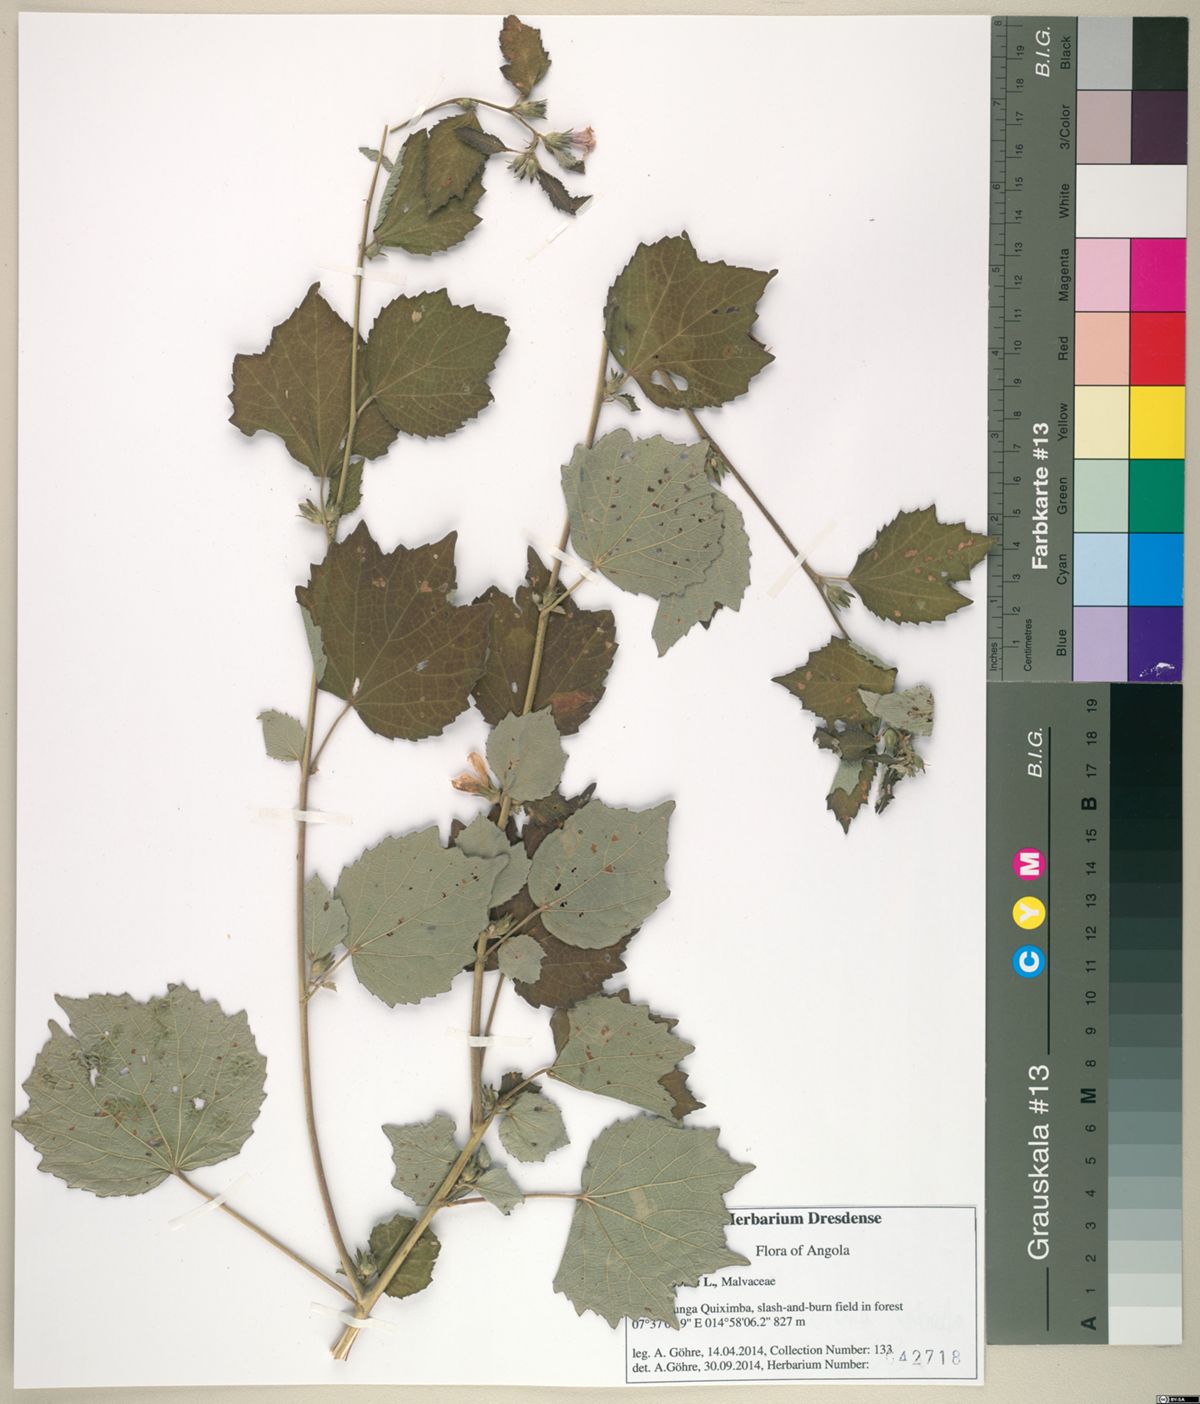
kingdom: Plantae
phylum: Tracheophyta
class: Magnoliopsida
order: Malvales
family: Malvaceae
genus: Urena
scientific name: Urena lobata
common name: Caesarweed
